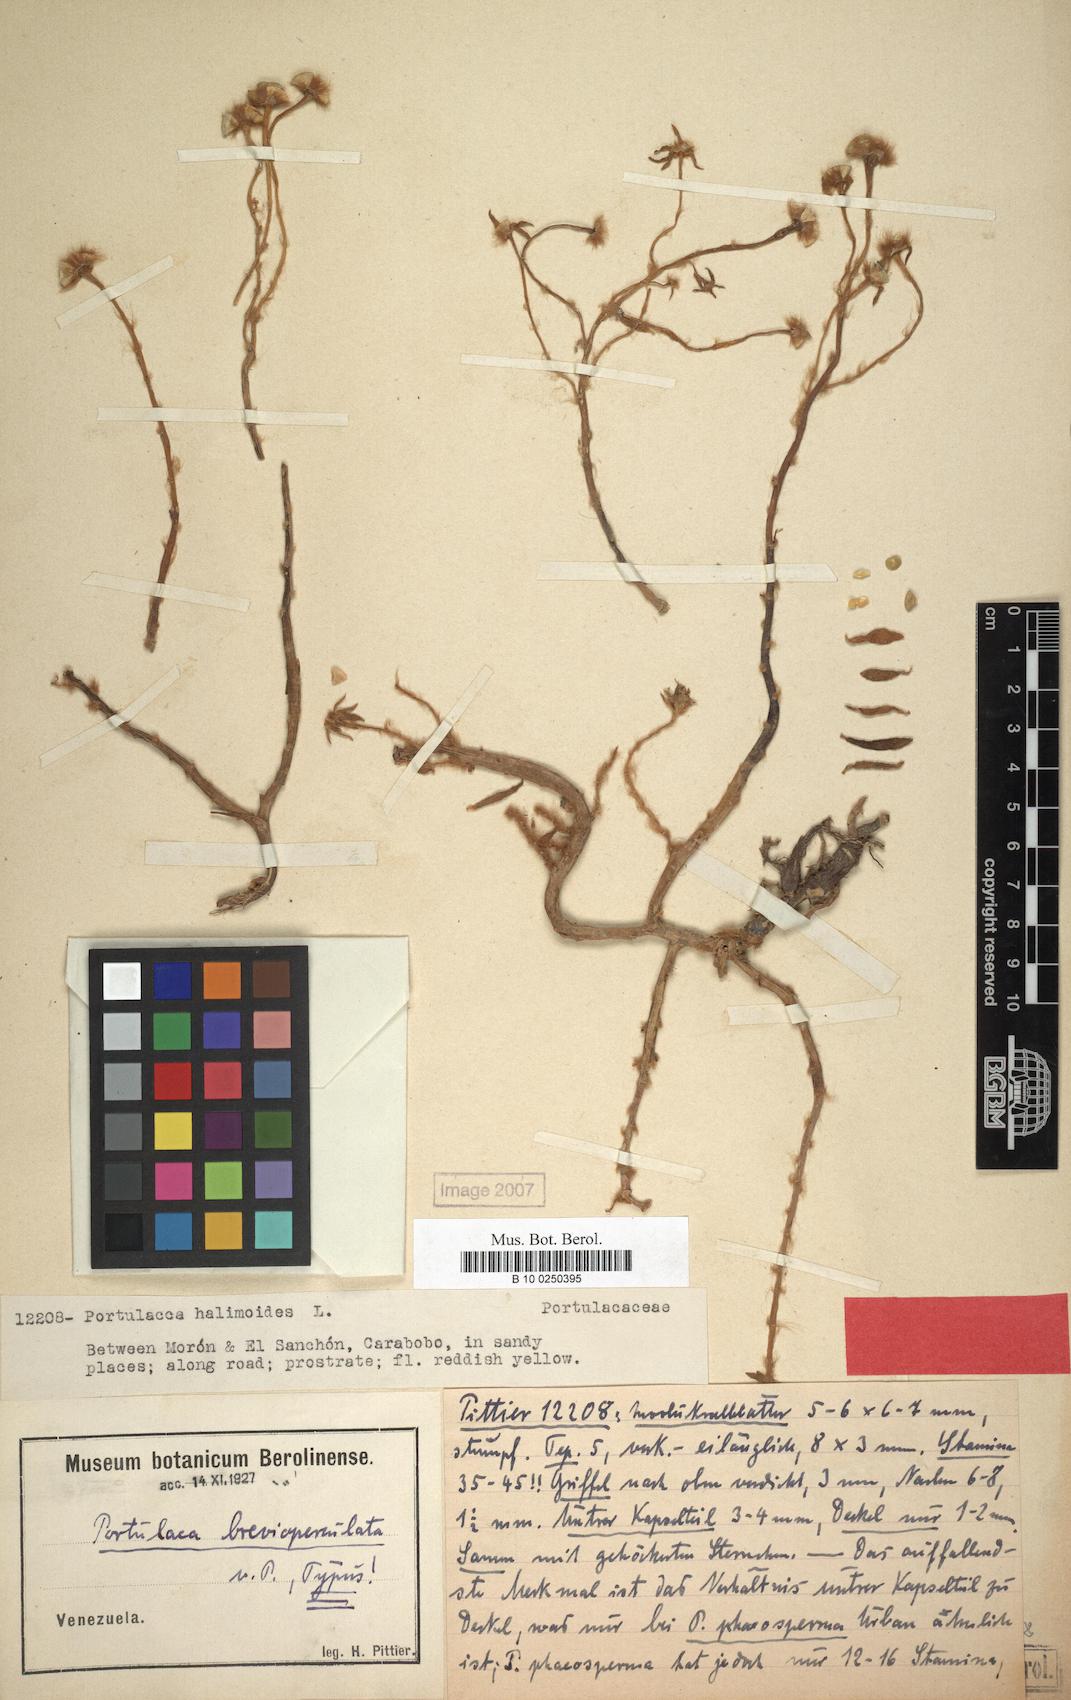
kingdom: Plantae
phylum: Tracheophyta
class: Magnoliopsida
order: Caryophyllales
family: Portulacaceae
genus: Portulaca
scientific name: Portulaca rubricaulis
